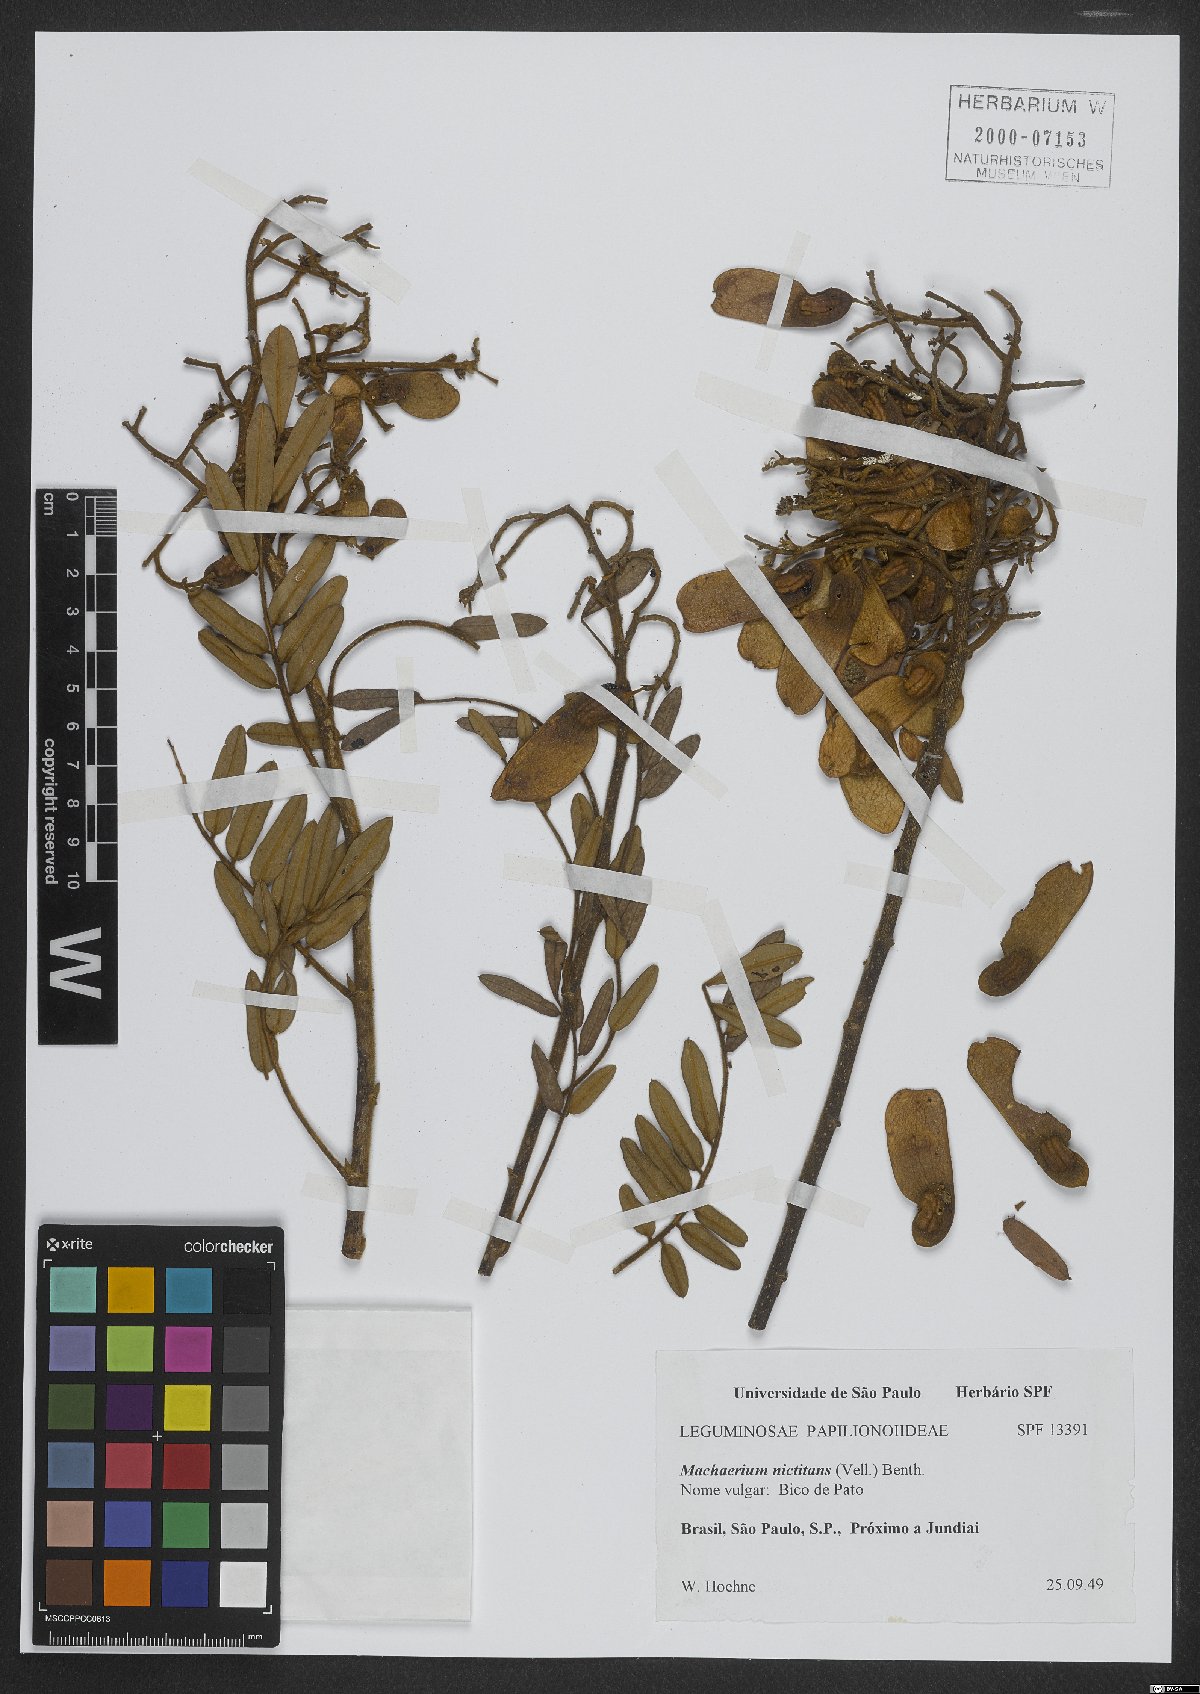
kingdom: Plantae
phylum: Tracheophyta
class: Magnoliopsida
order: Fabales
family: Fabaceae
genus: Machaerium
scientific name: Machaerium nyctitans
